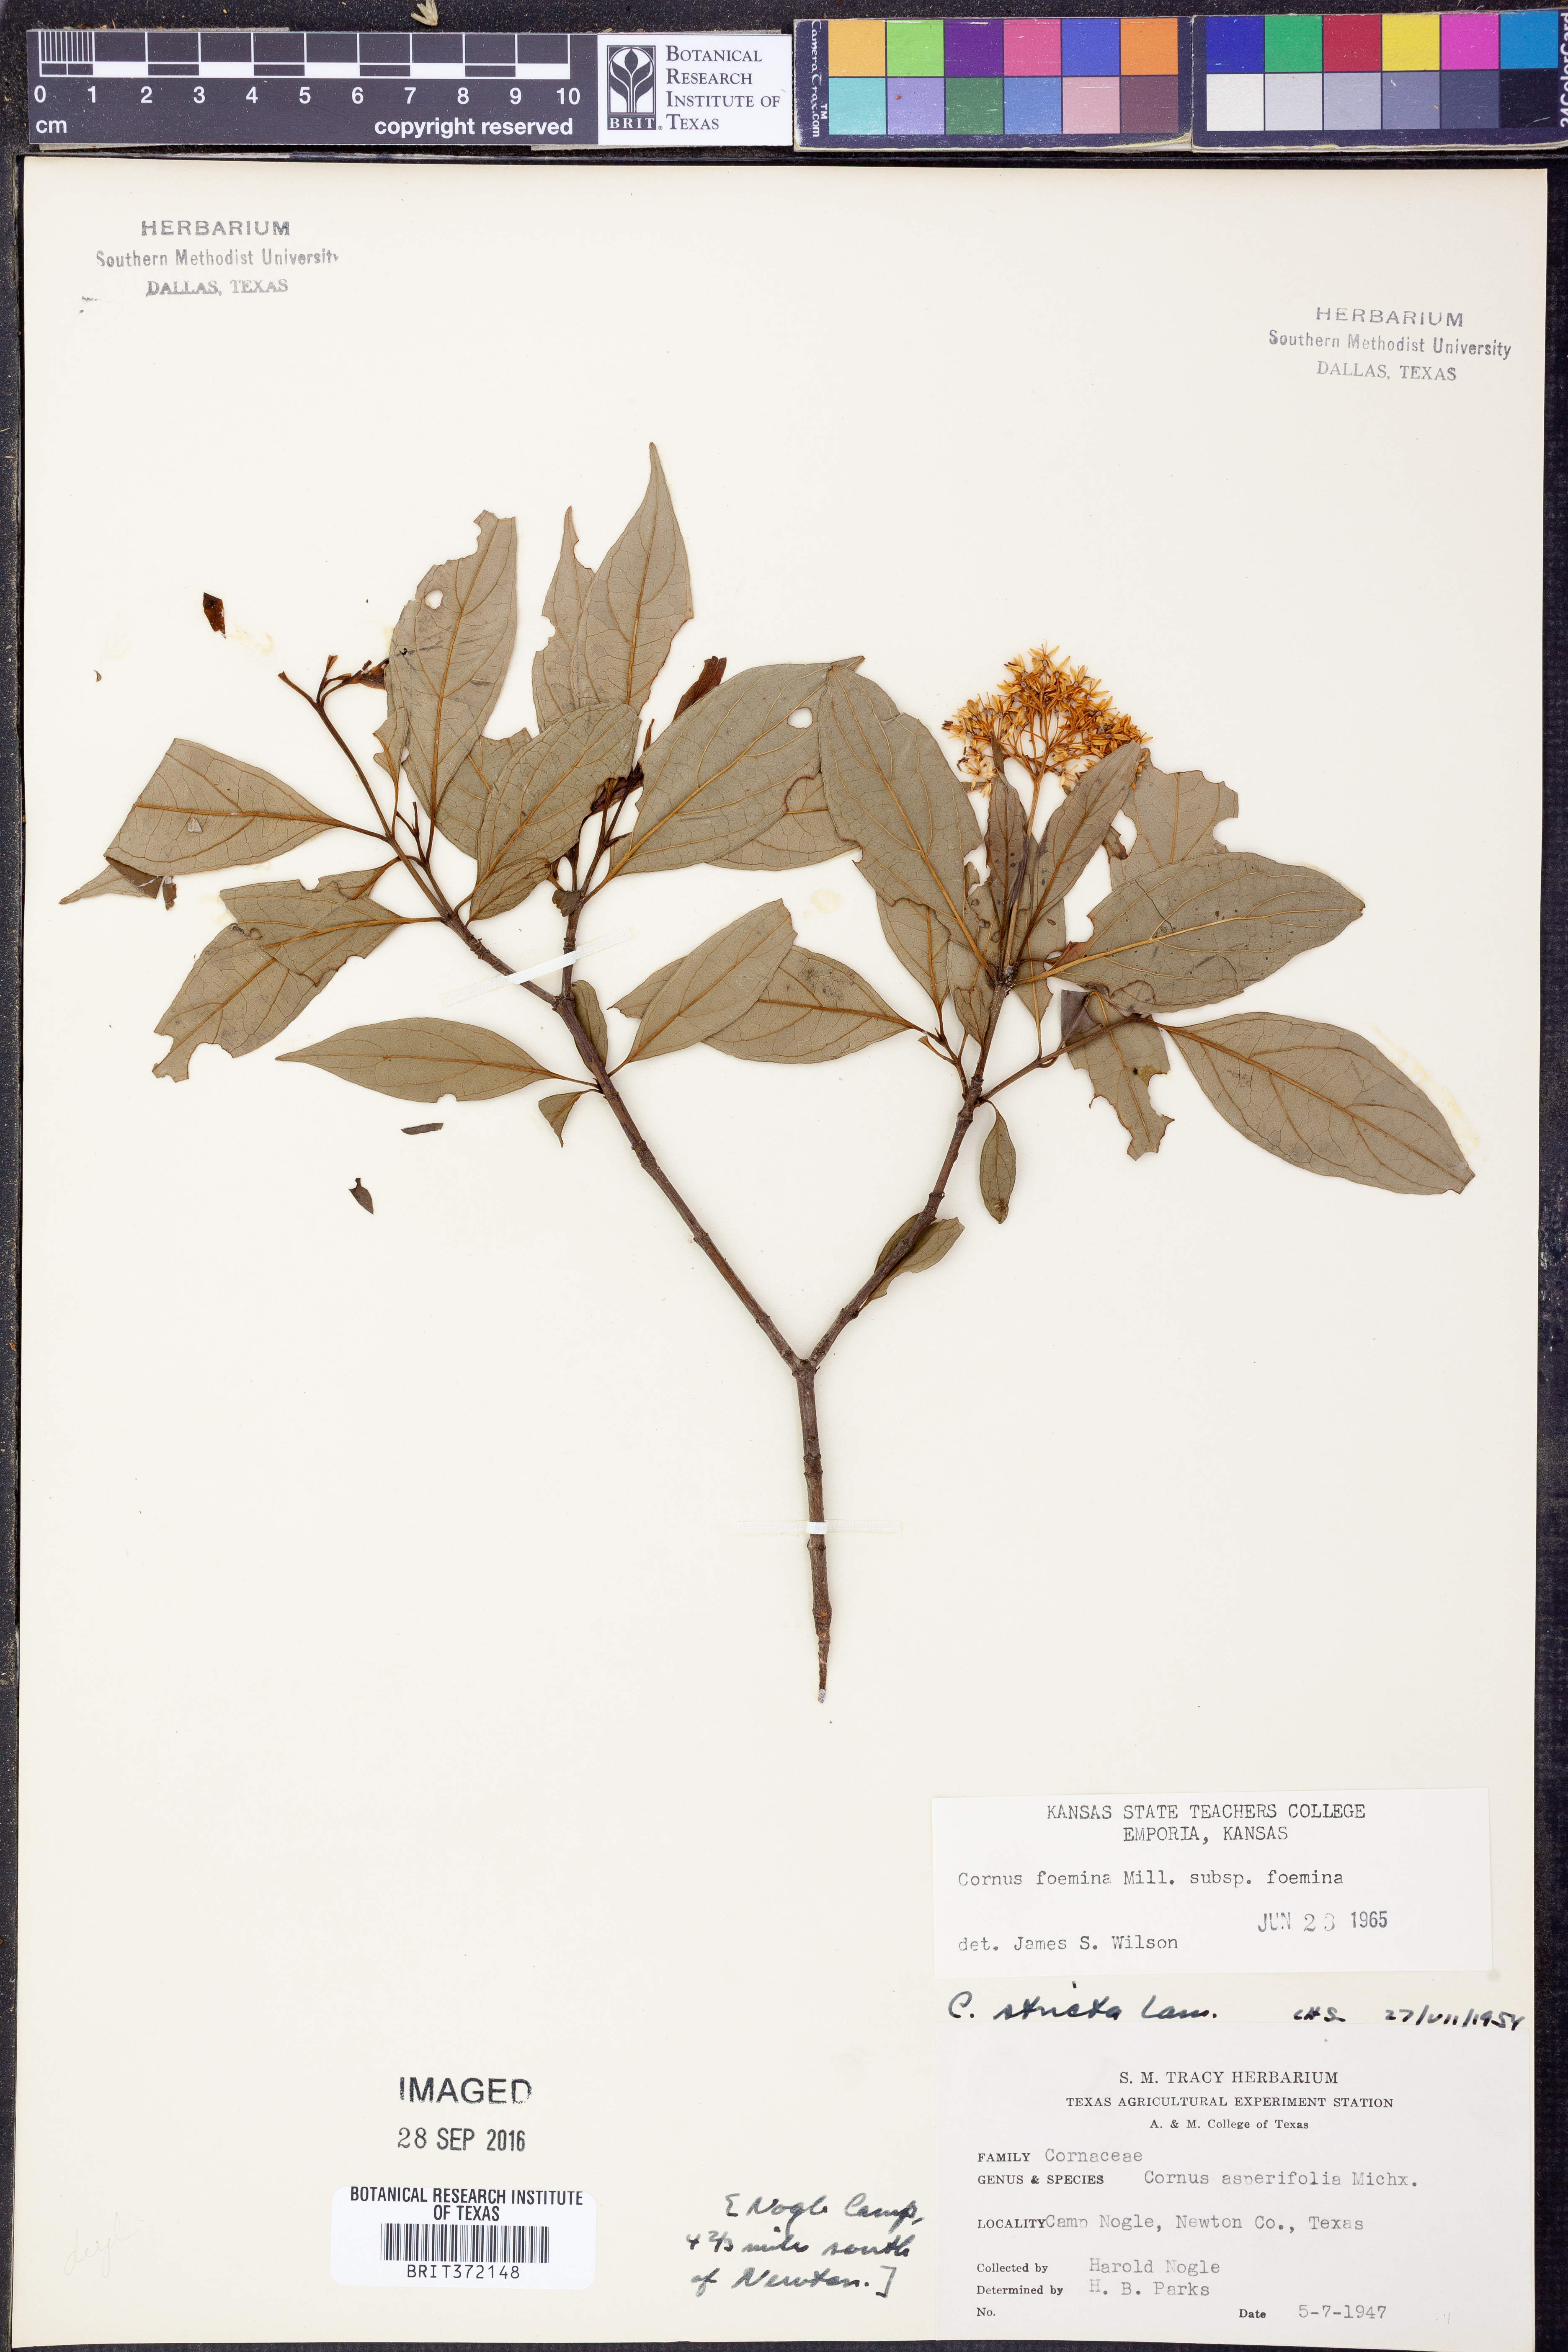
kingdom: Plantae
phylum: Tracheophyta
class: Magnoliopsida
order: Cornales
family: Cornaceae
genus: Cornus
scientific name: Cornus foemina
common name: Swamp dogwood
